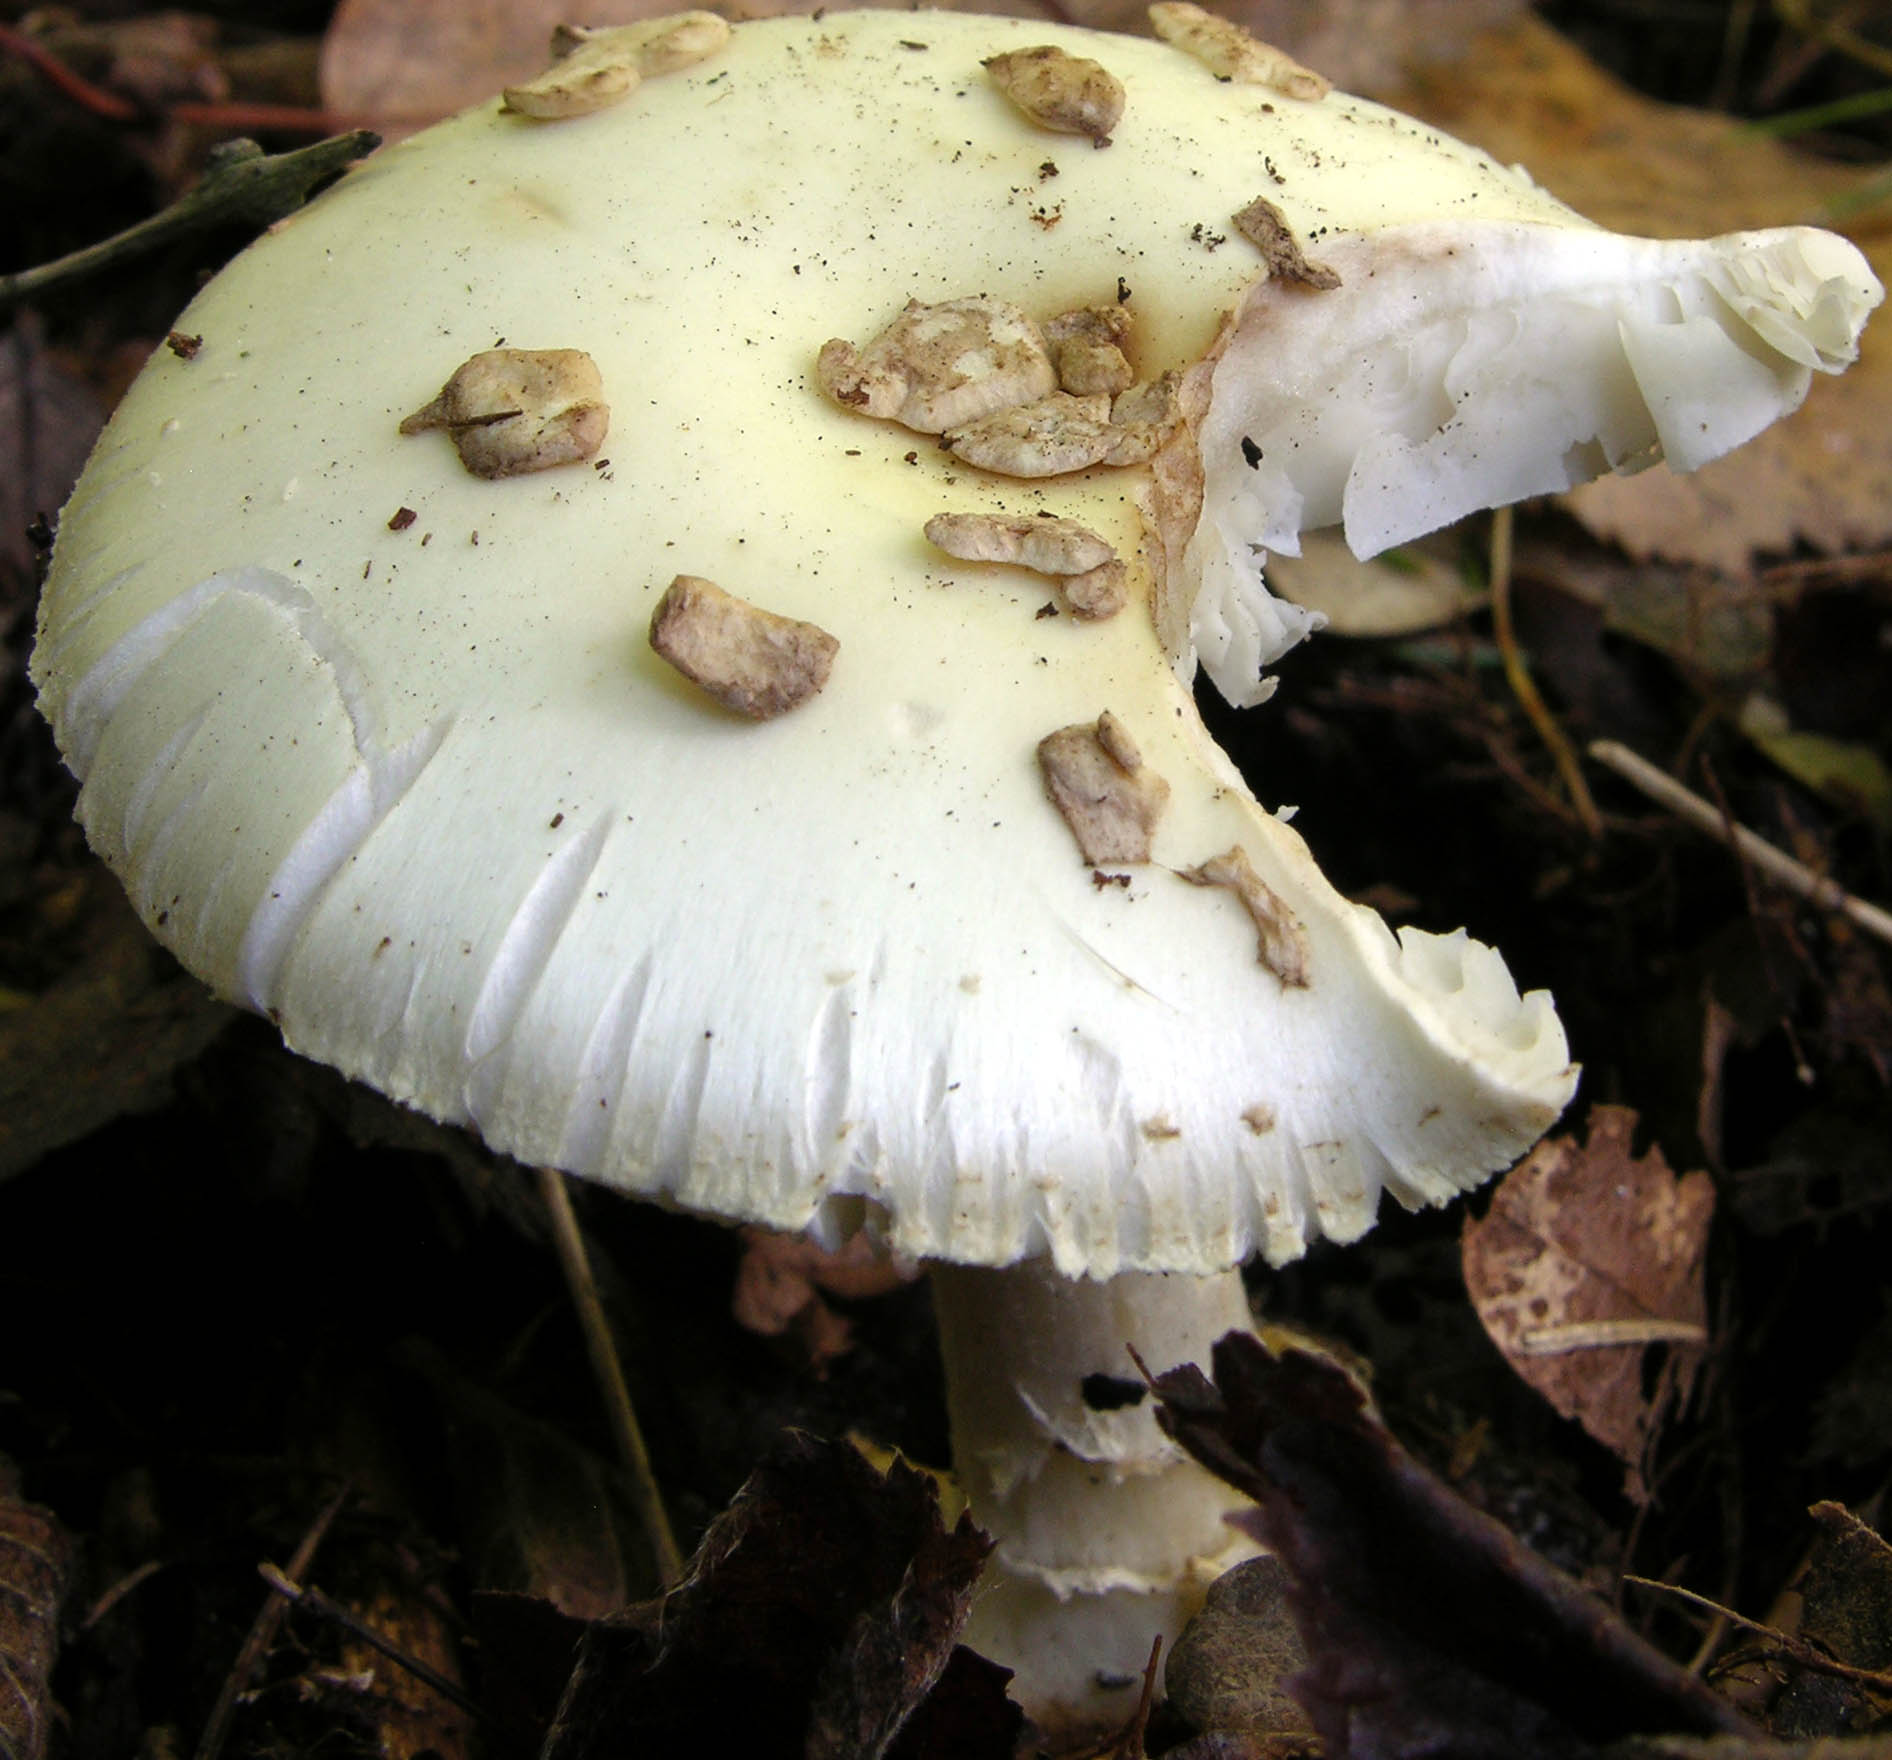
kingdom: Fungi
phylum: Basidiomycota
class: Agaricomycetes
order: Agaricales
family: Amanitaceae
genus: Amanita
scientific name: Amanita citrina
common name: False death-cap
